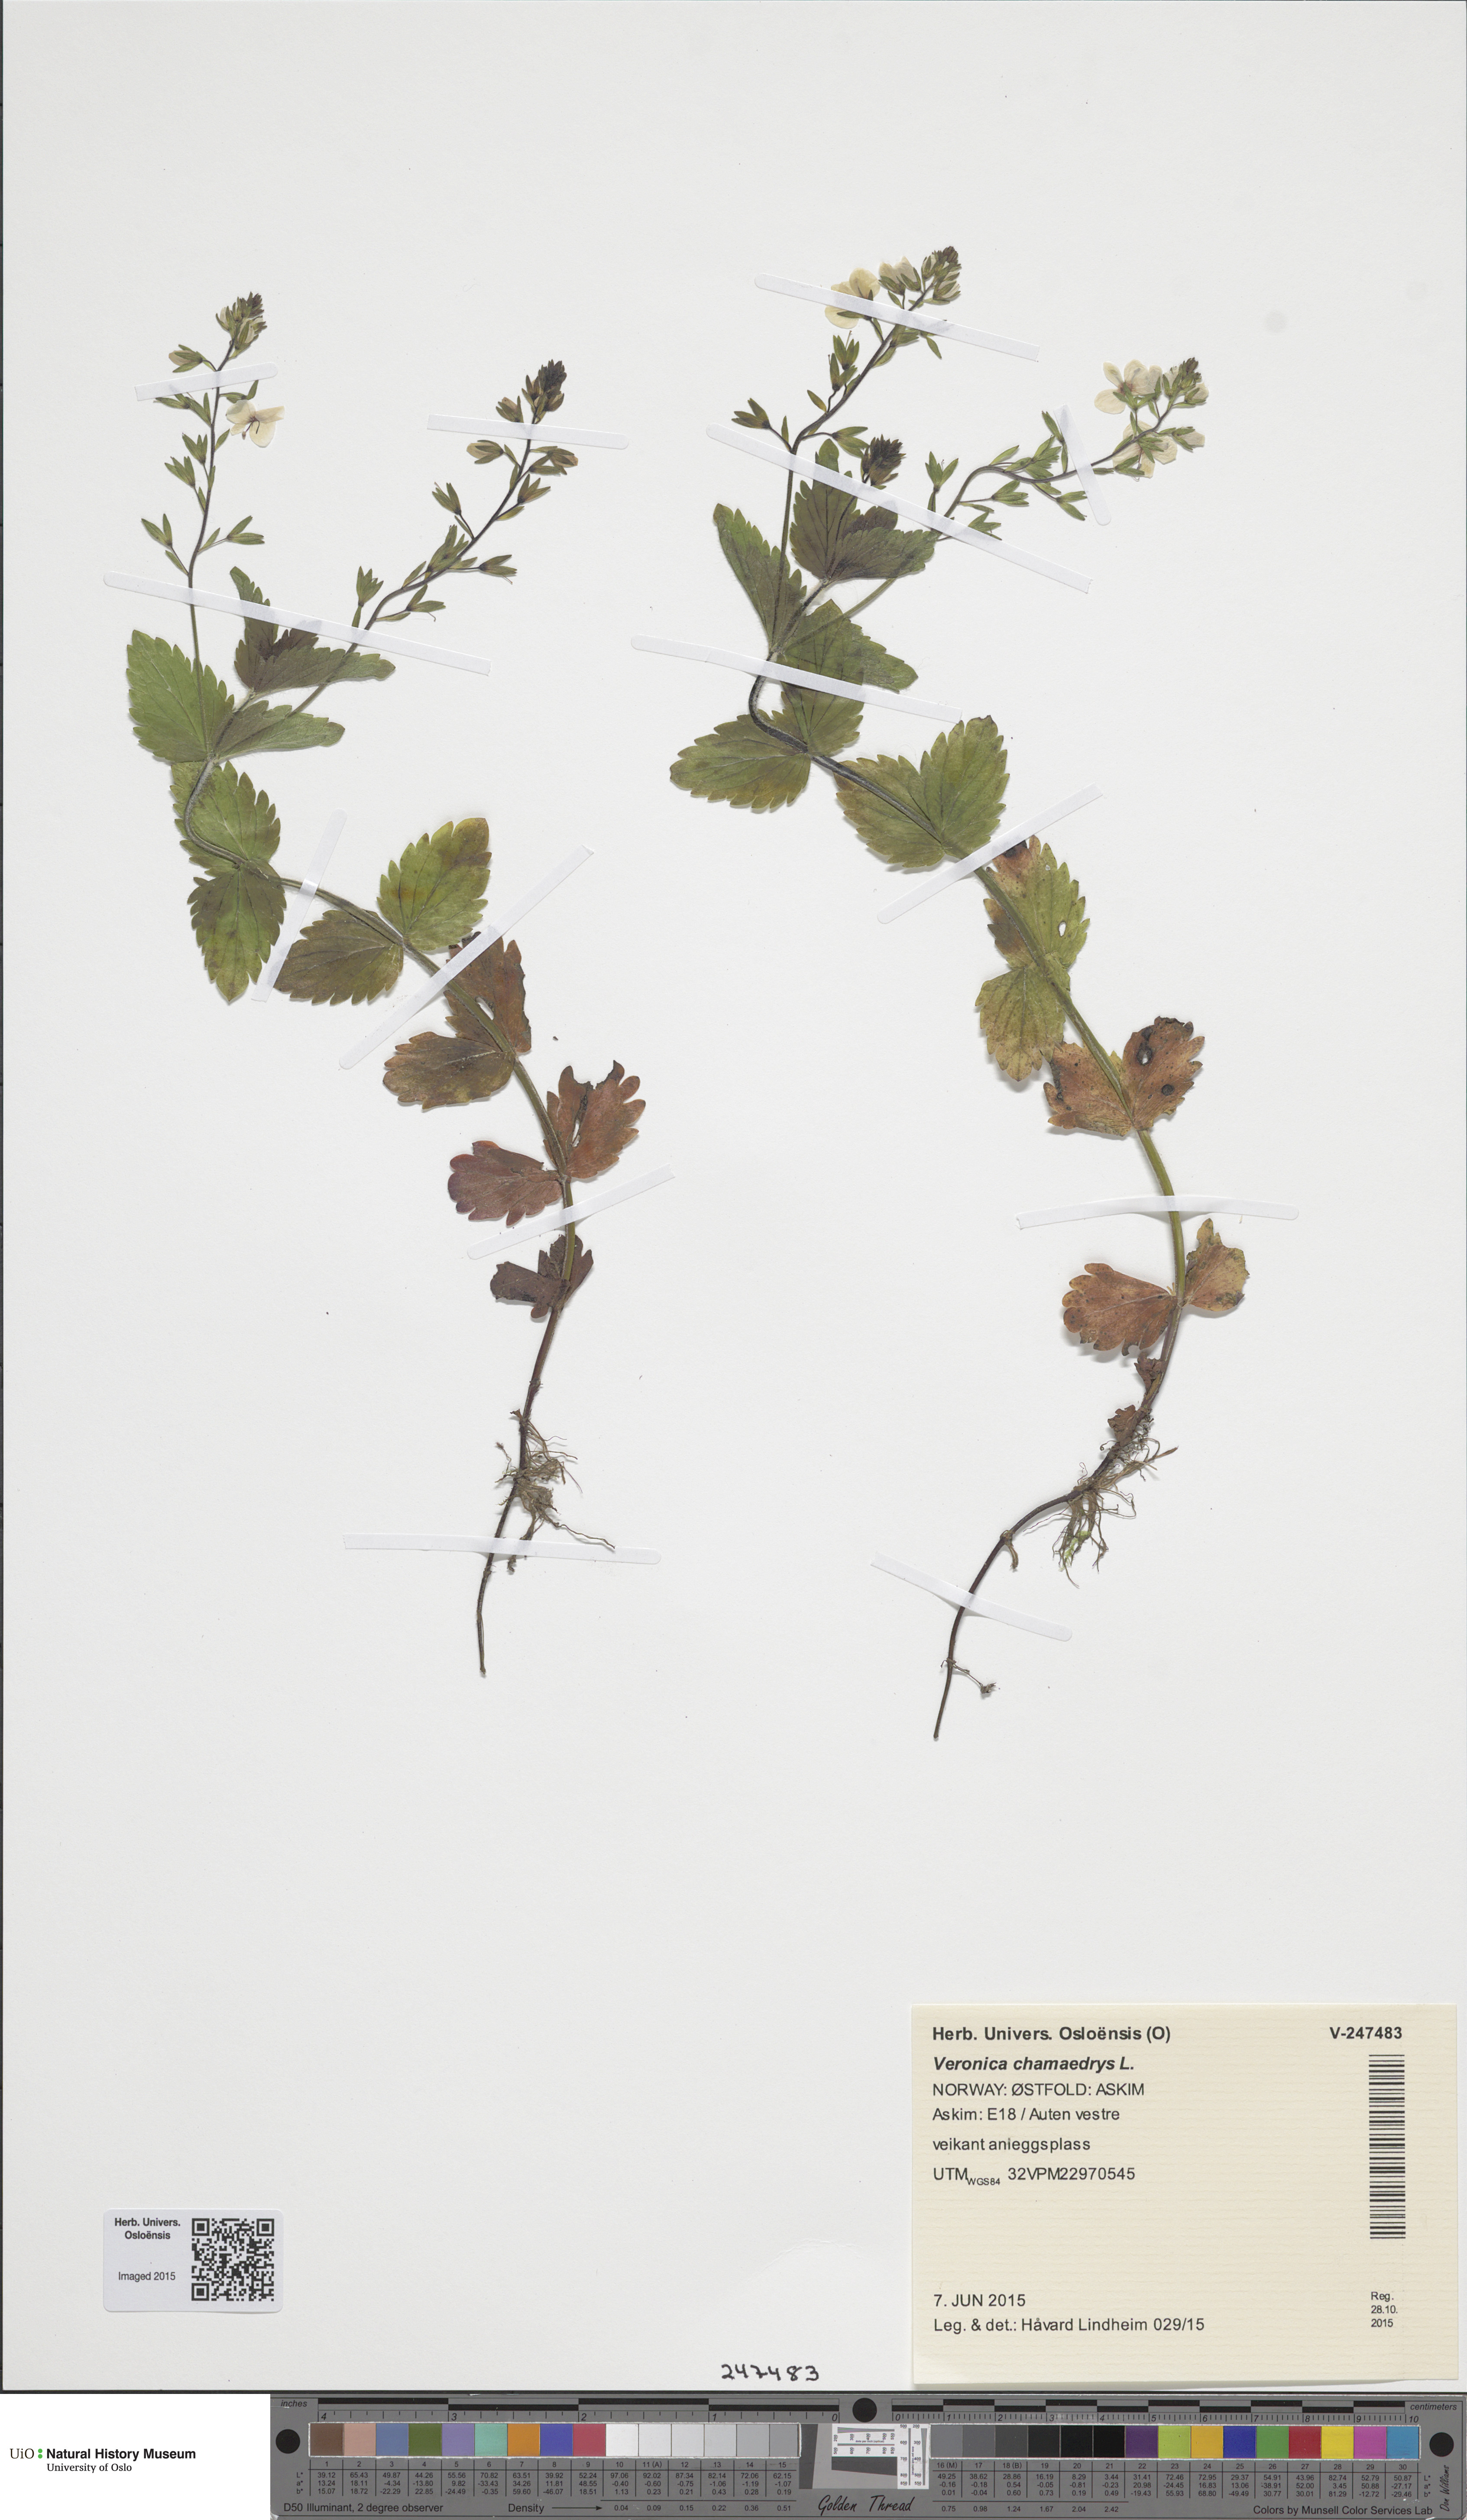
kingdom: Plantae
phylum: Tracheophyta
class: Magnoliopsida
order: Lamiales
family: Plantaginaceae
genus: Veronica
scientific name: Veronica chamaedrys
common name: Germander speedwell
